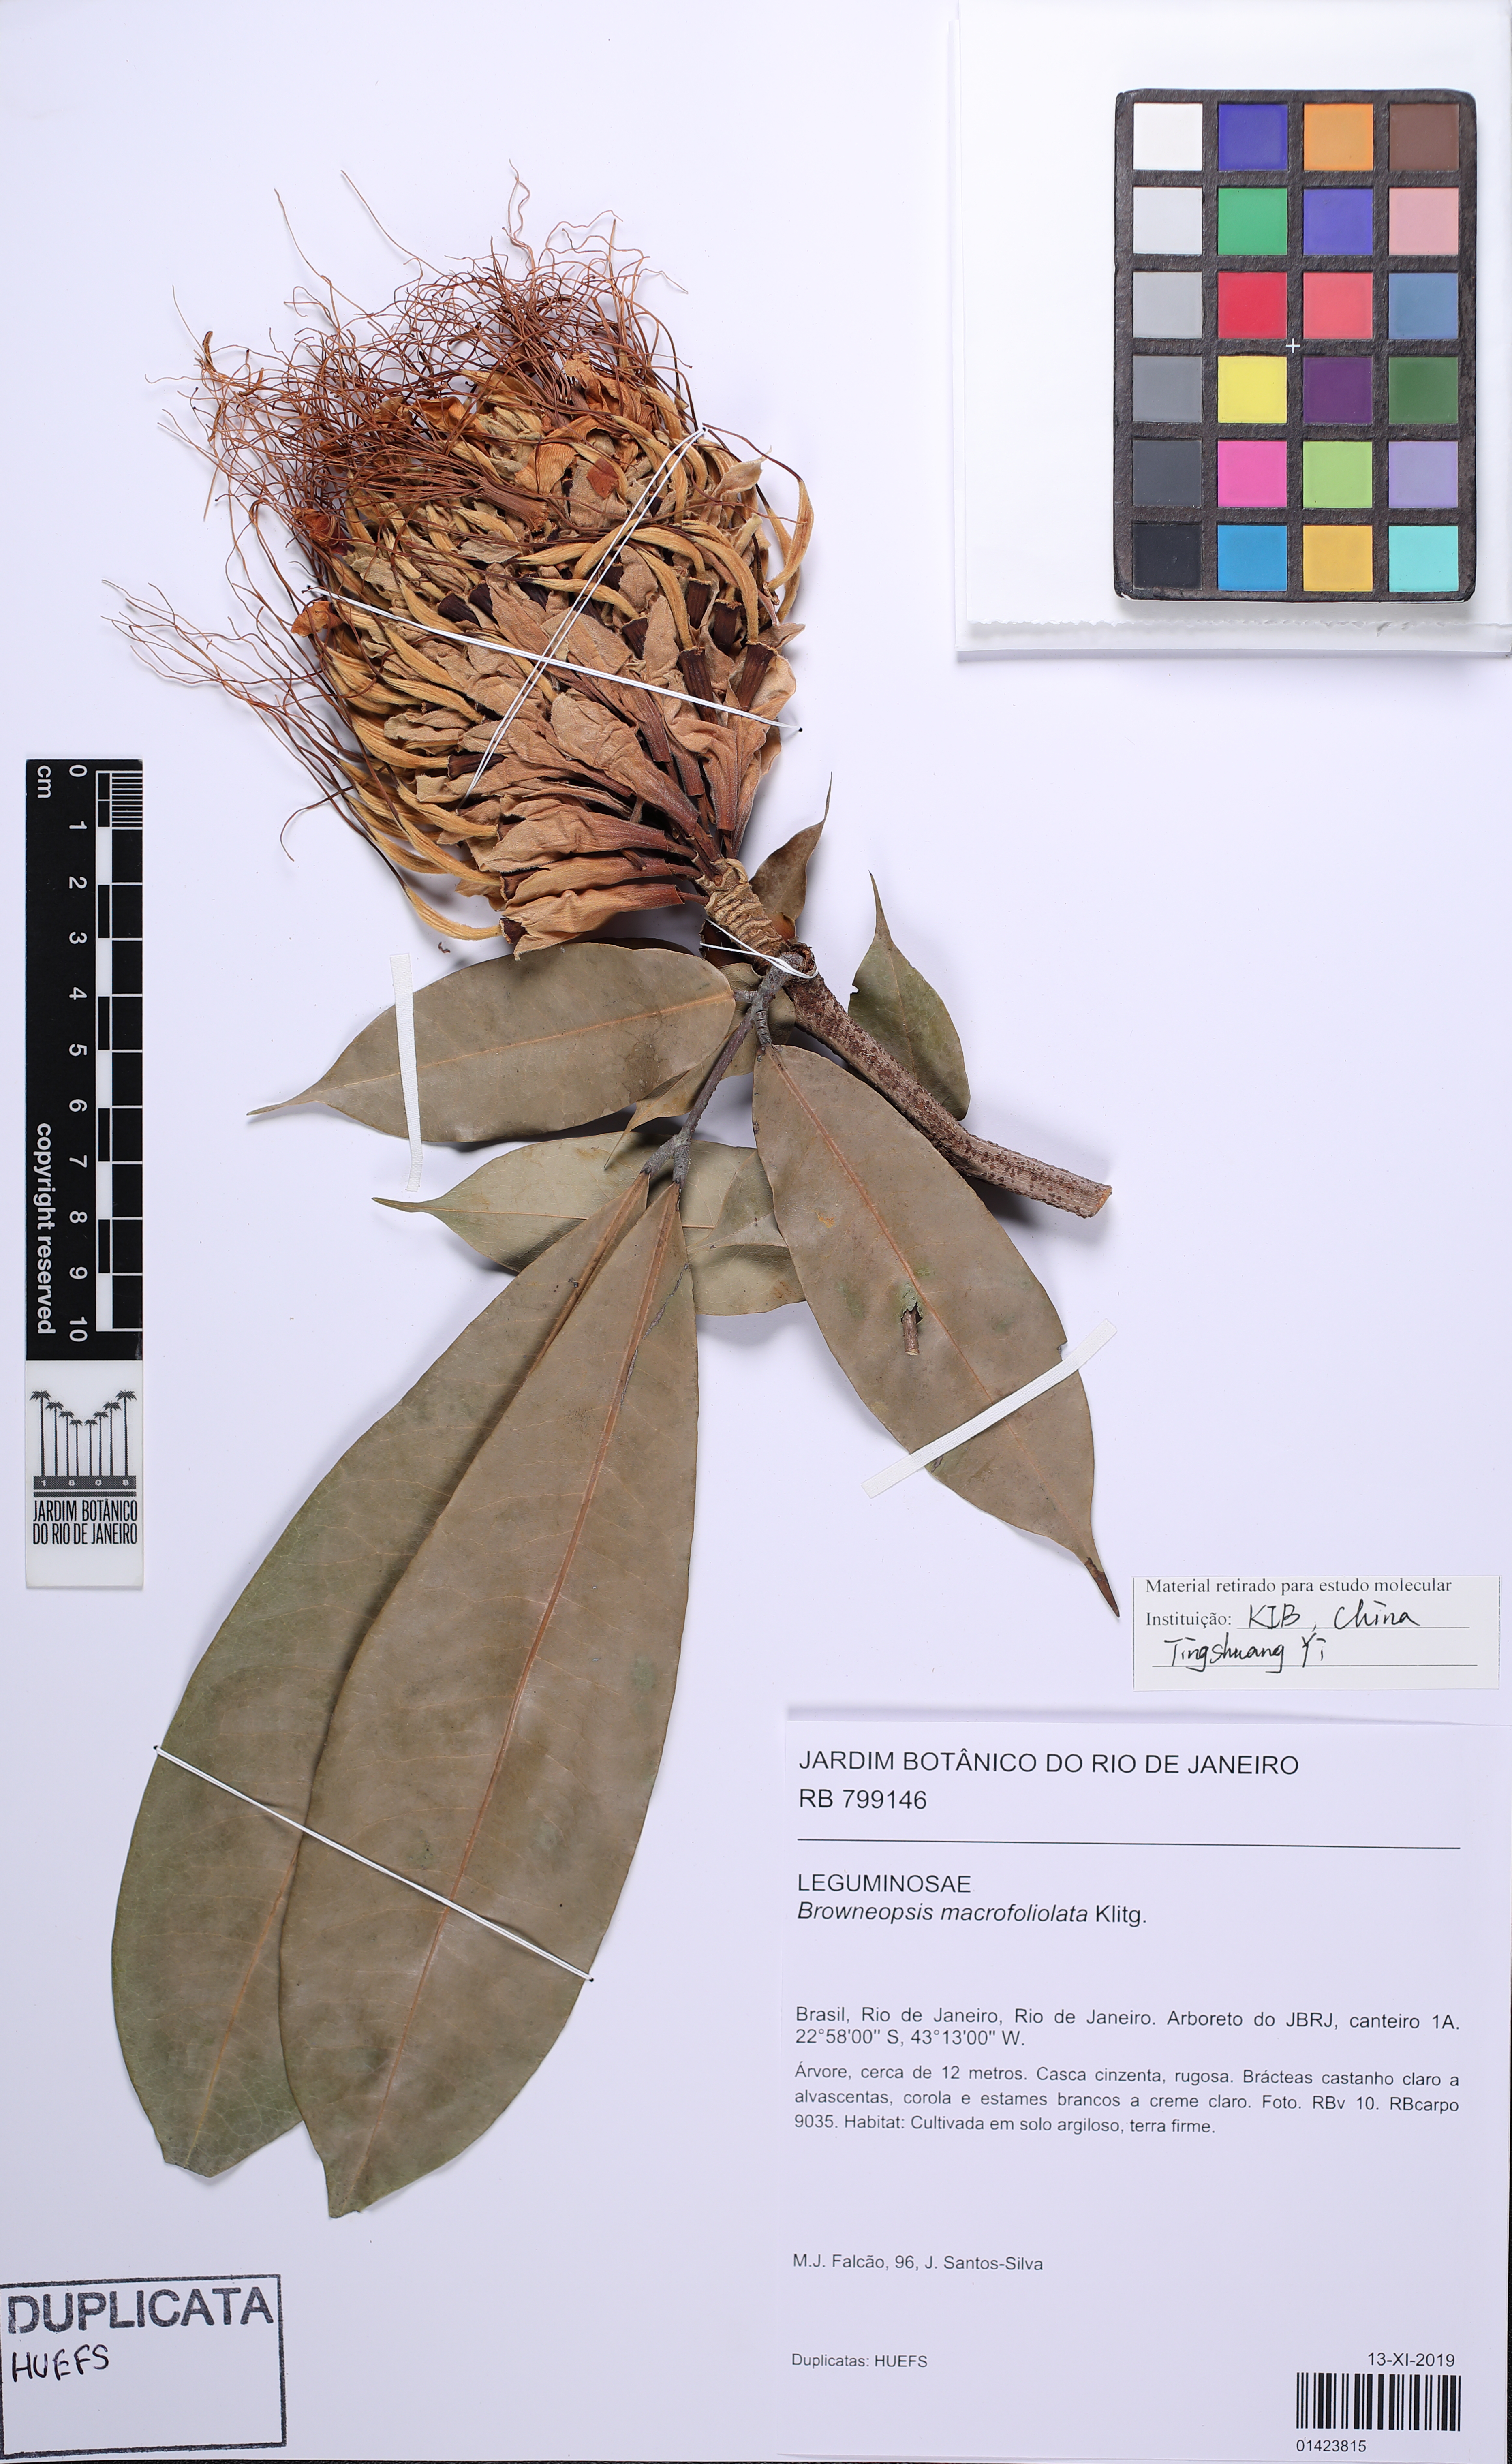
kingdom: Plantae
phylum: Tracheophyta
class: Magnoliopsida
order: Fabales
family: Fabaceae
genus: Browneopsis
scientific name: Browneopsis macrofoliolata
